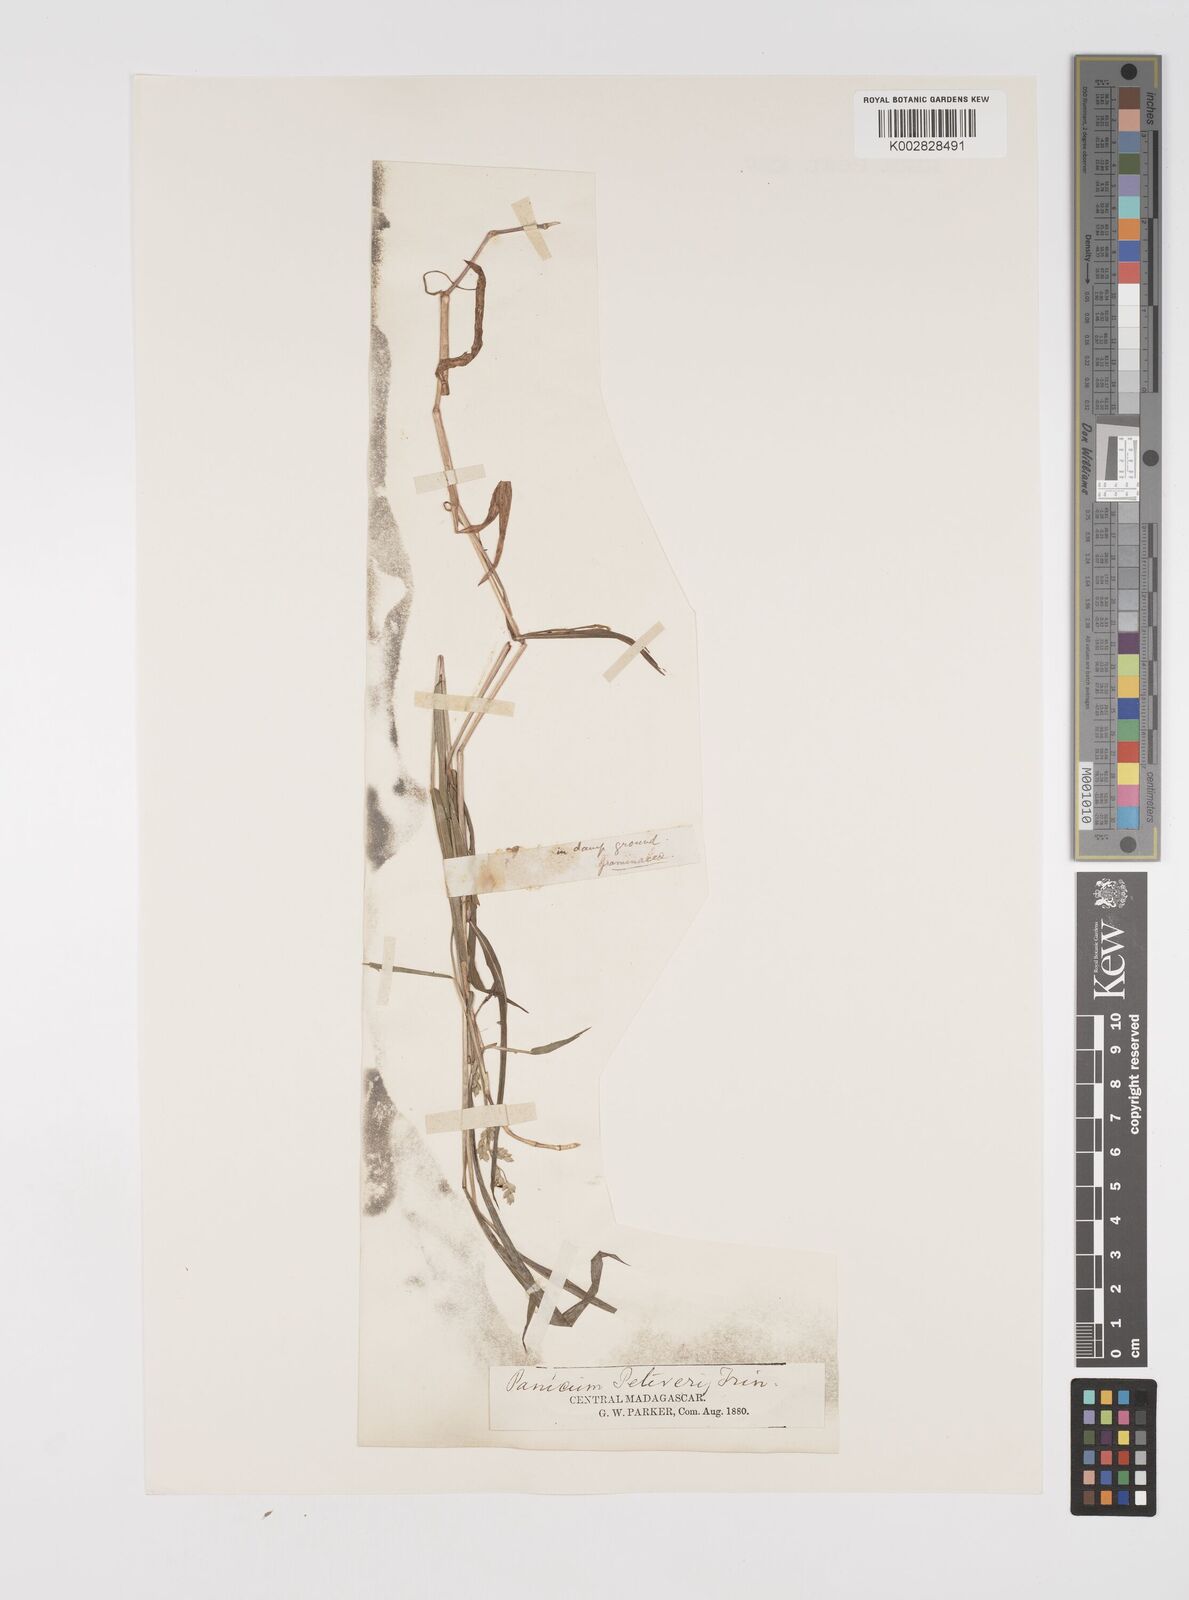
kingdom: Plantae
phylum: Tracheophyta
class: Liliopsida
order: Poales
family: Poaceae
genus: Acroceras
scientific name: Acroceras
